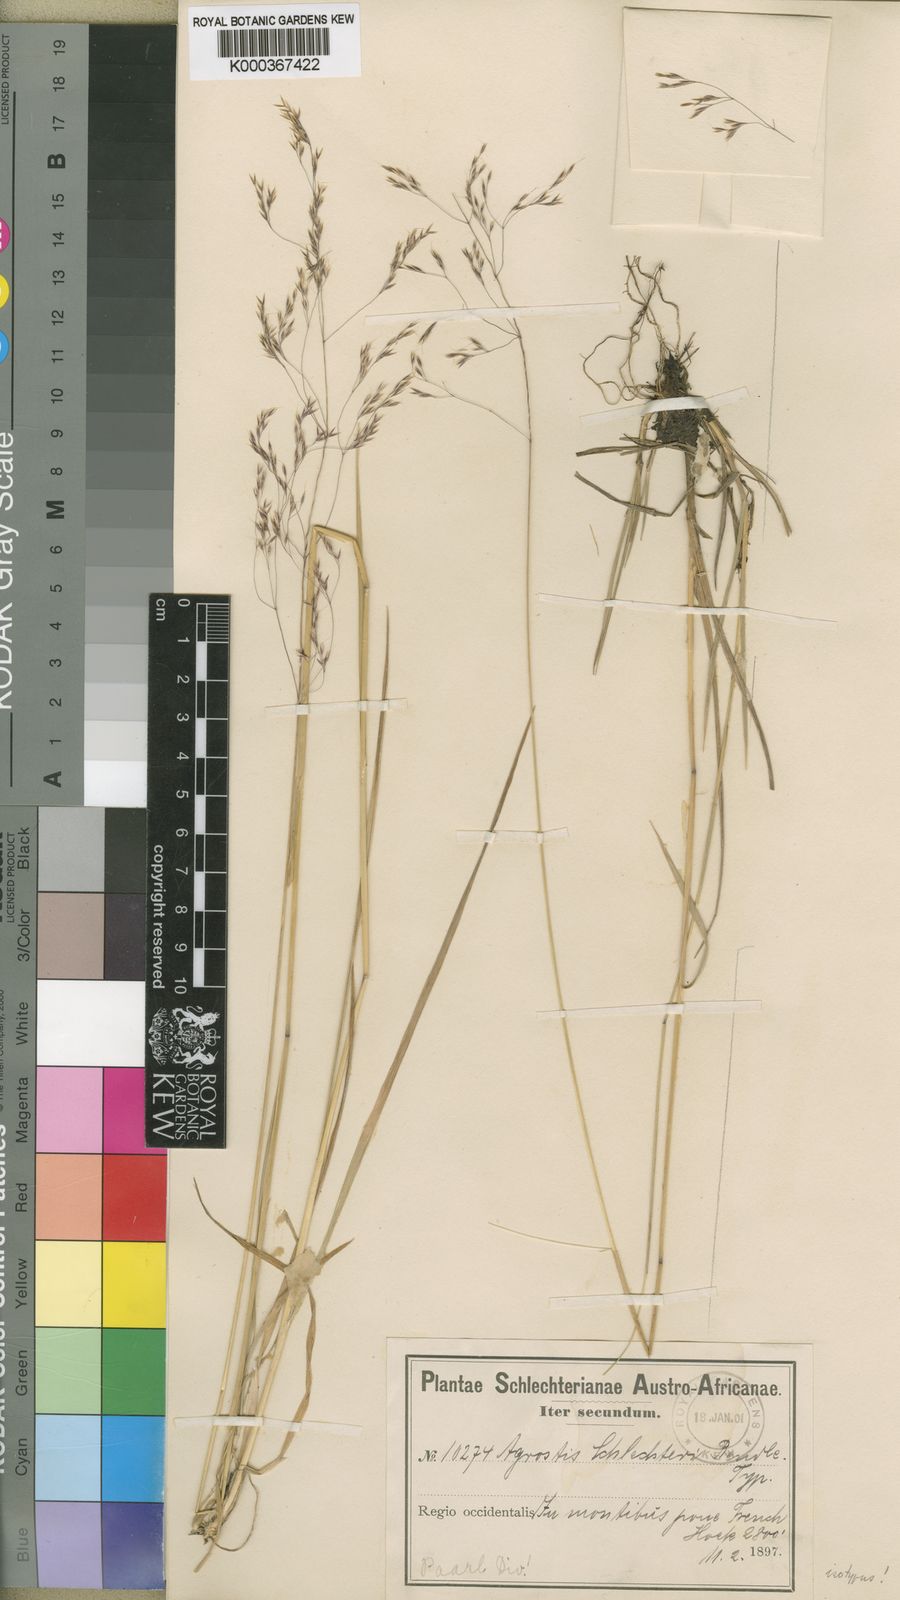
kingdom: Plantae
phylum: Tracheophyta
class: Liliopsida
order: Poales
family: Poaceae
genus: Lachnagrostis
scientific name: Lachnagrostis schlechteri
